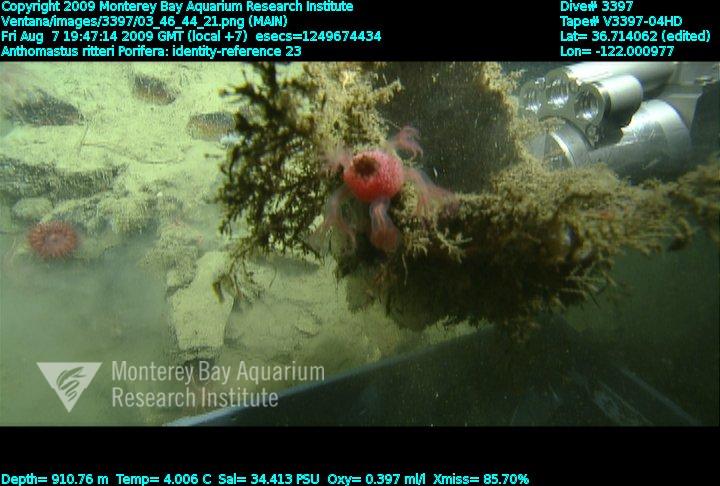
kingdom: Animalia
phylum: Porifera
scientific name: Porifera
